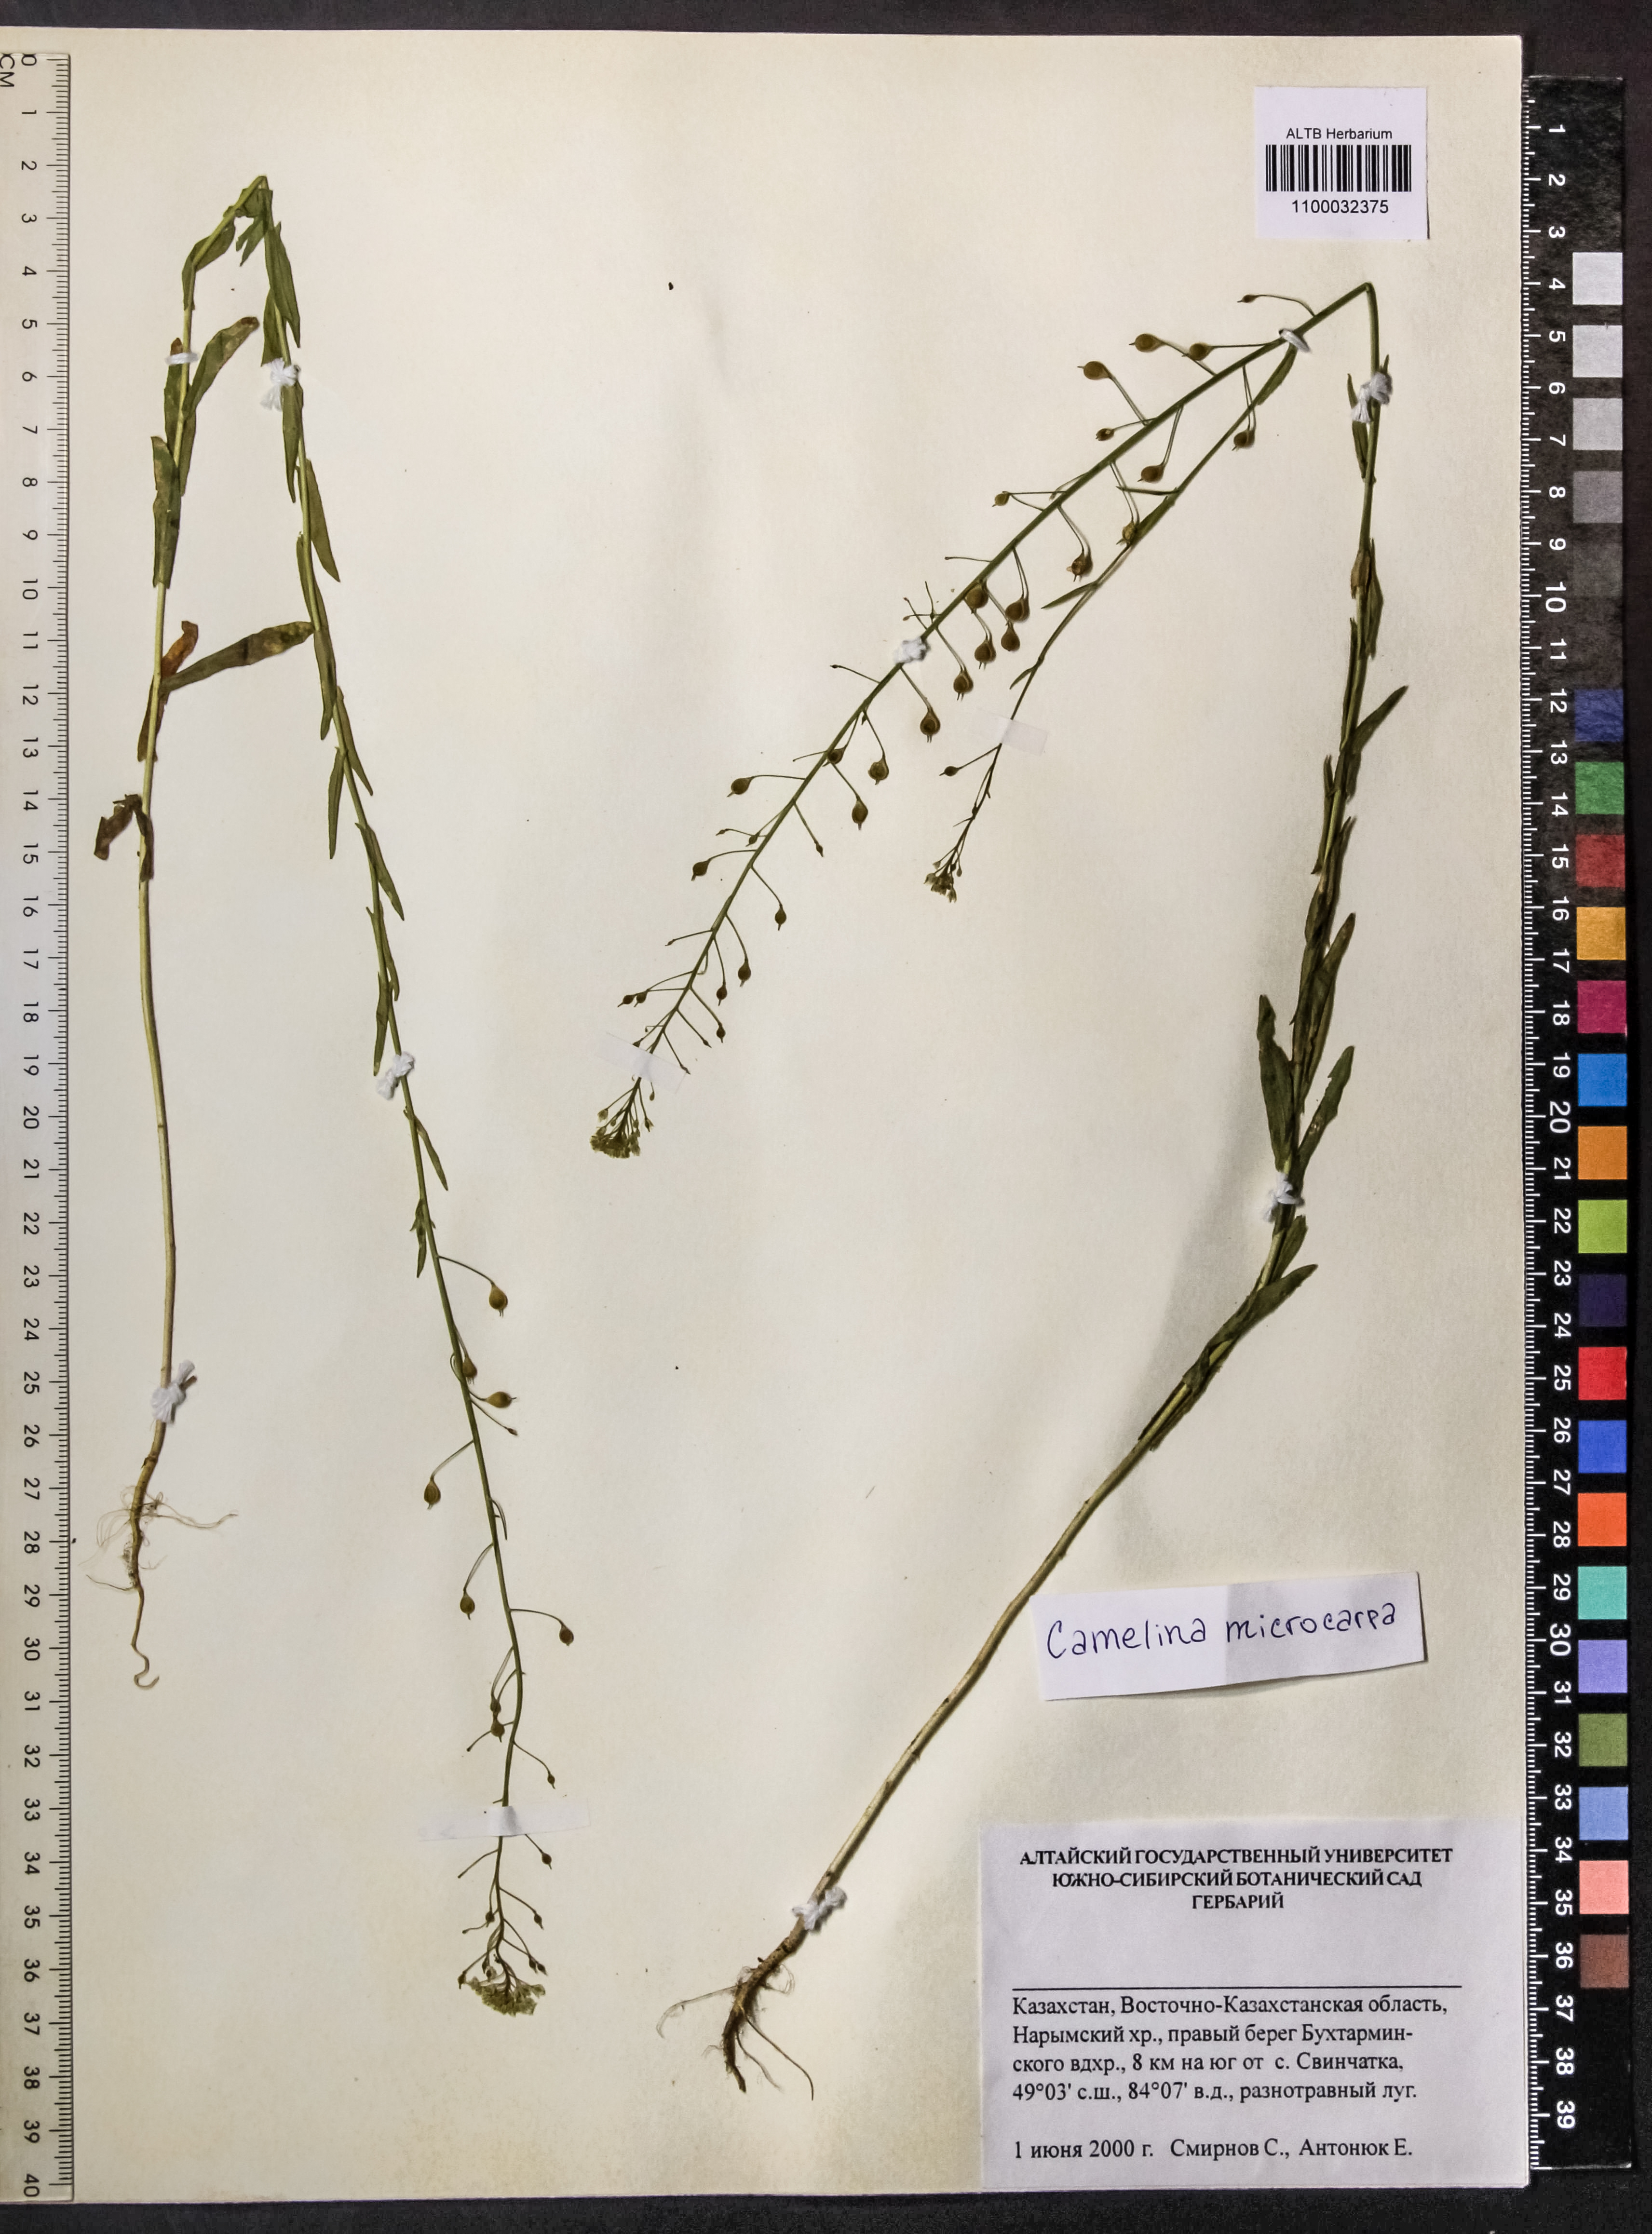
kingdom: Plantae
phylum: Tracheophyta
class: Magnoliopsida
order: Brassicales
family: Brassicaceae
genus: Camelina
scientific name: Camelina microcarpa
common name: Lesser gold-of-pleasure
